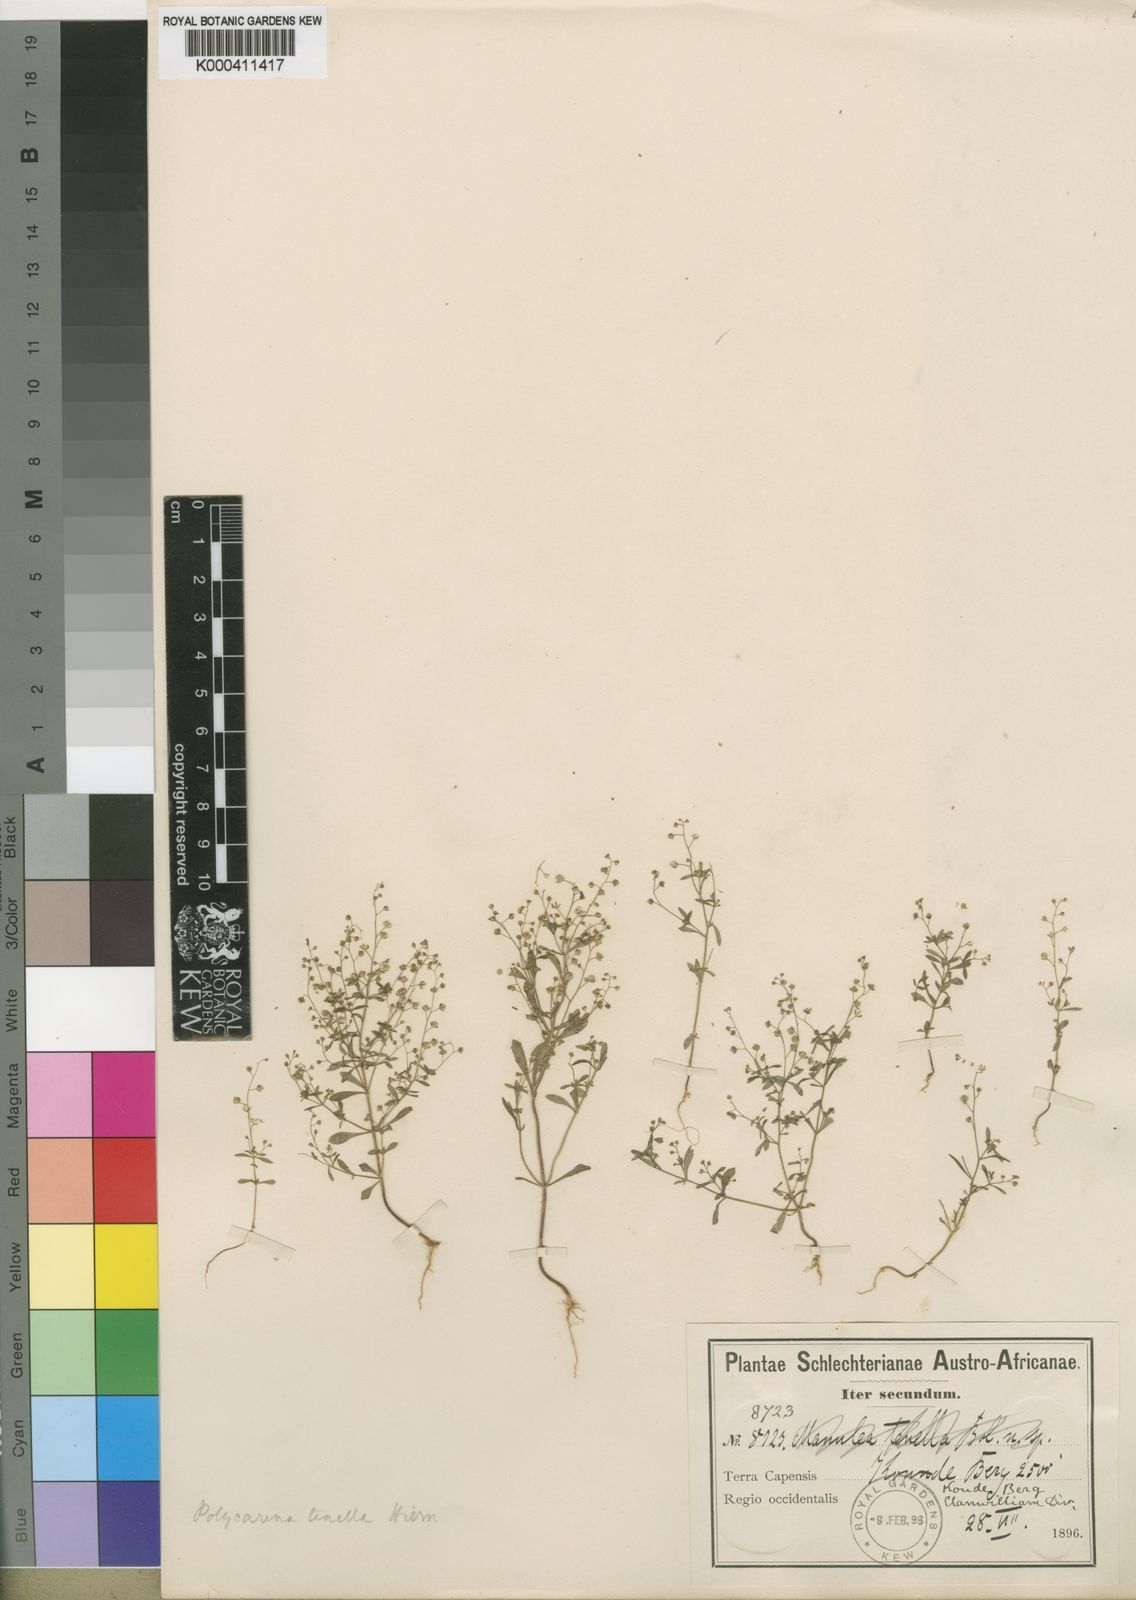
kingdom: Plantae
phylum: Tracheophyta
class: Magnoliopsida
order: Lamiales
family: Scrophulariaceae
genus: Polycarena
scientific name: Polycarena tenella
